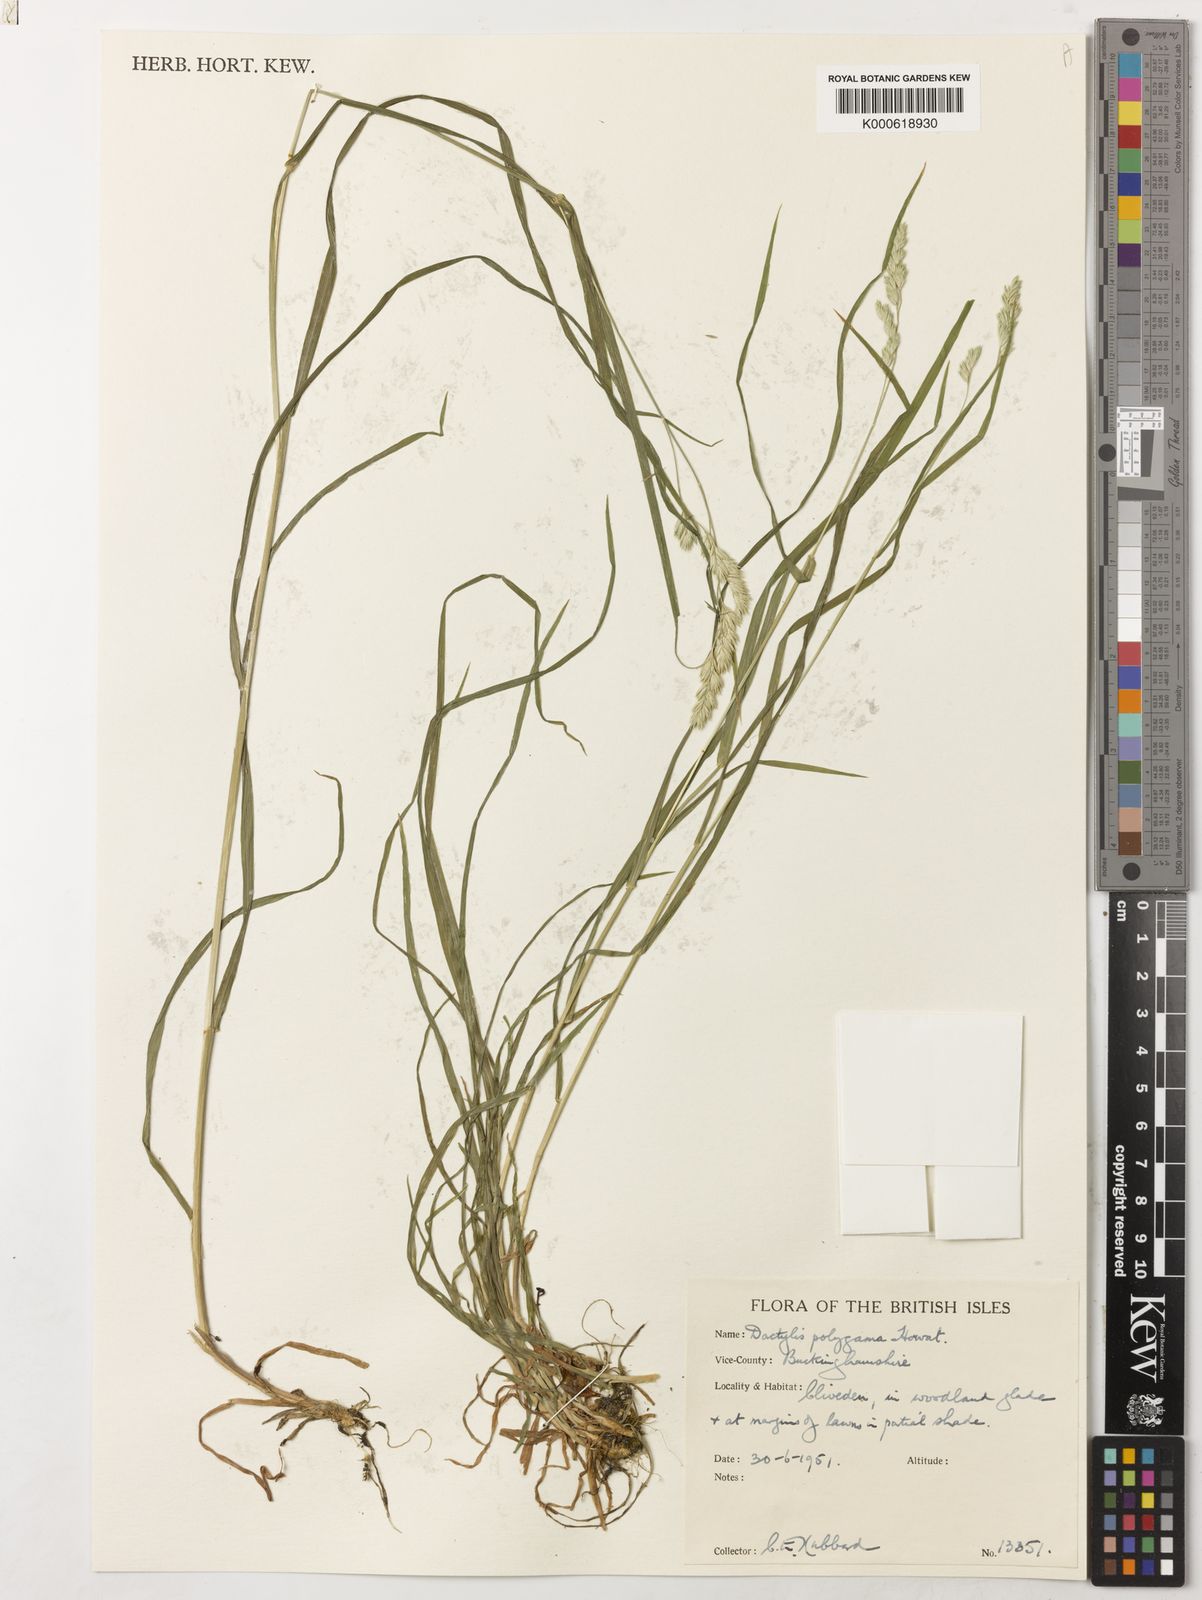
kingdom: Plantae
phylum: Tracheophyta
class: Liliopsida
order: Poales
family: Poaceae
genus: Dactylis
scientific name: Dactylis glomerata
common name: Orchardgrass
